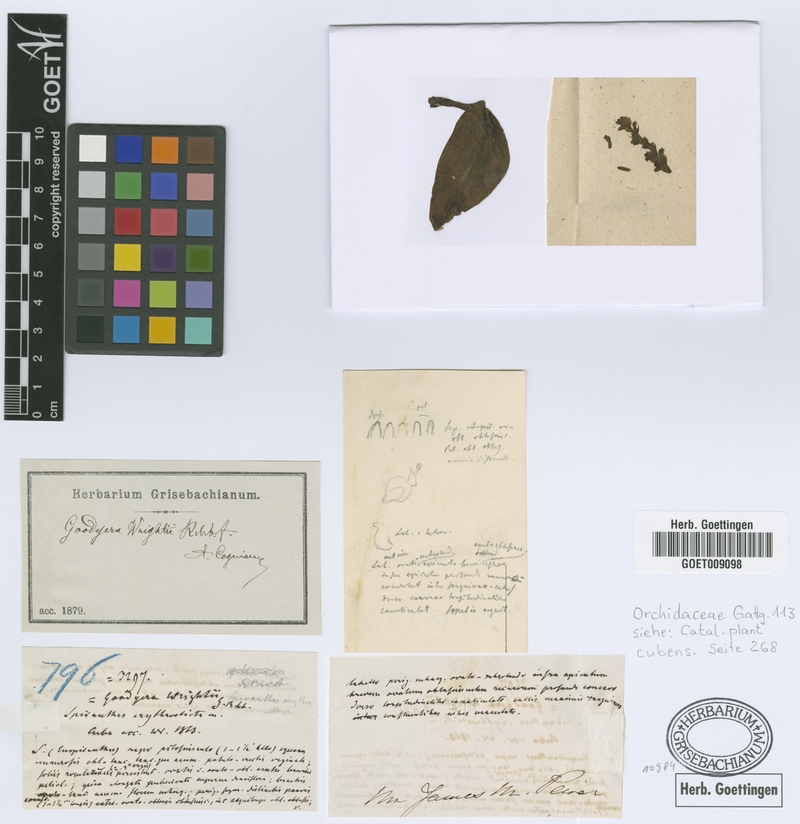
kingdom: Plantae
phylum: Tracheophyta
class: Liliopsida
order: Asparagales
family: Orchidaceae
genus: Pseudogoodyera
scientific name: Pseudogoodyera wrightii
